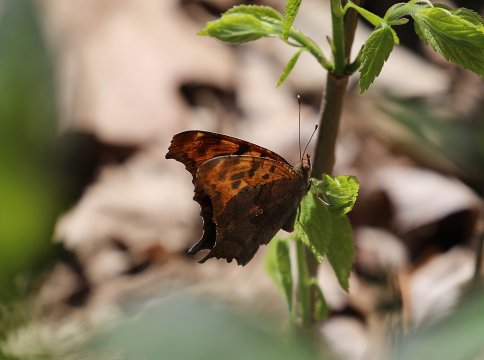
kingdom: Animalia
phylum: Arthropoda
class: Insecta
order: Lepidoptera
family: Nymphalidae
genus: Polygonia
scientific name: Polygonia interrogationis
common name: Question Mark
